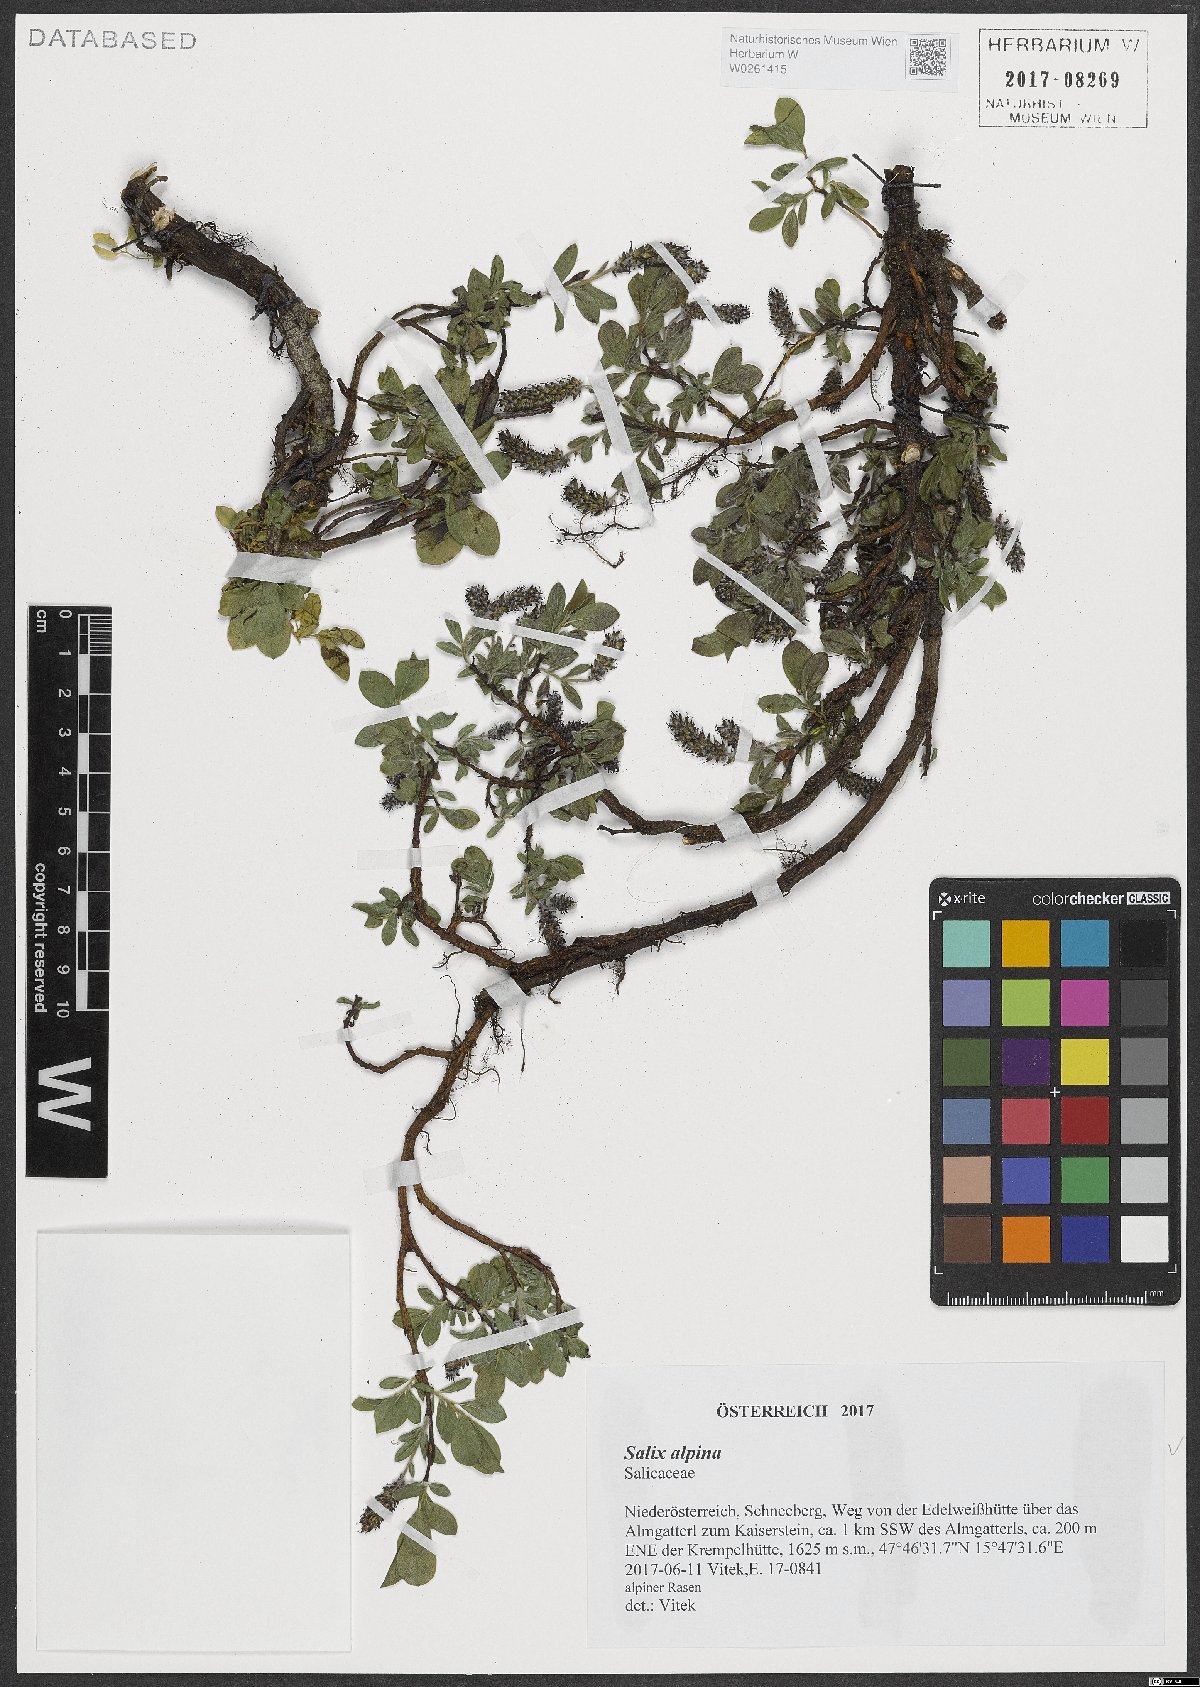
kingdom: Plantae
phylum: Tracheophyta
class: Magnoliopsida
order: Malpighiales
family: Salicaceae
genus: Salix
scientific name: Salix alpina
